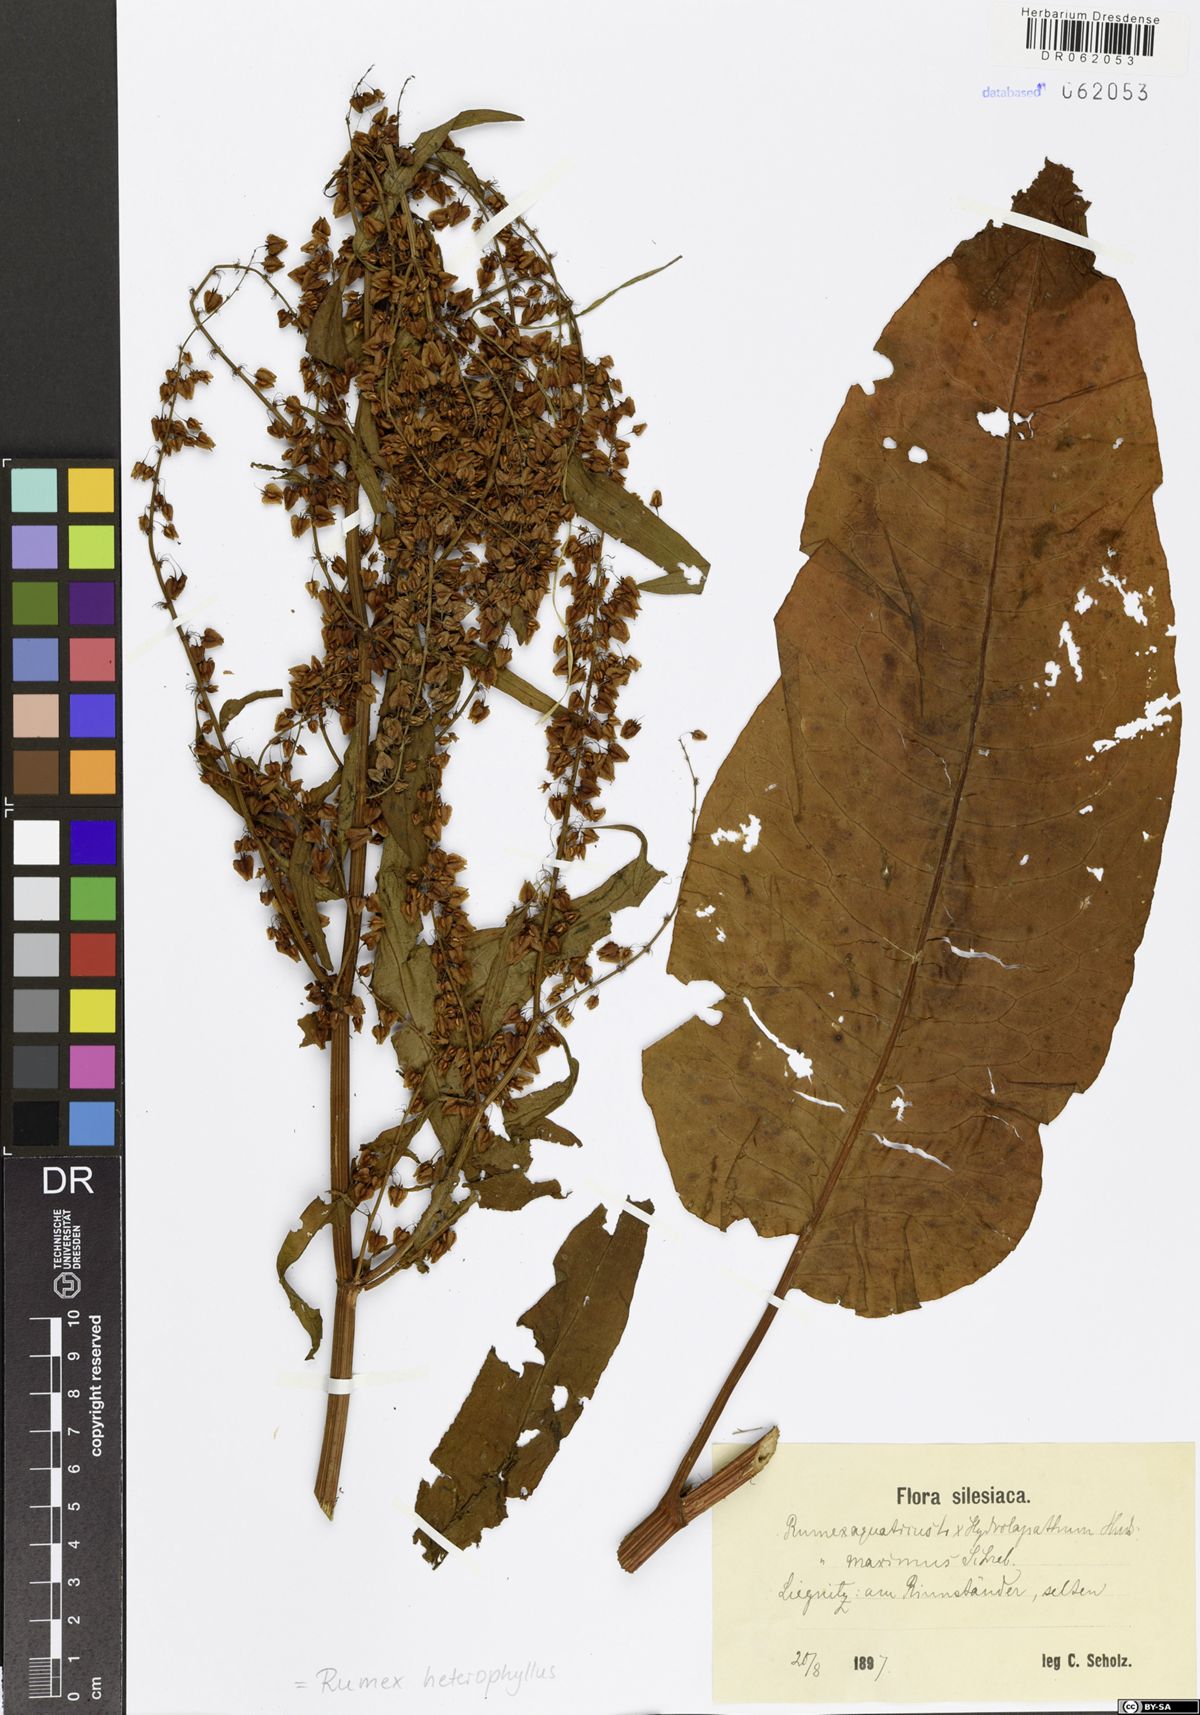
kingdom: Plantae
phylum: Tracheophyta
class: Magnoliopsida
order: Caryophyllales
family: Polygonaceae
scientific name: Polygonaceae
